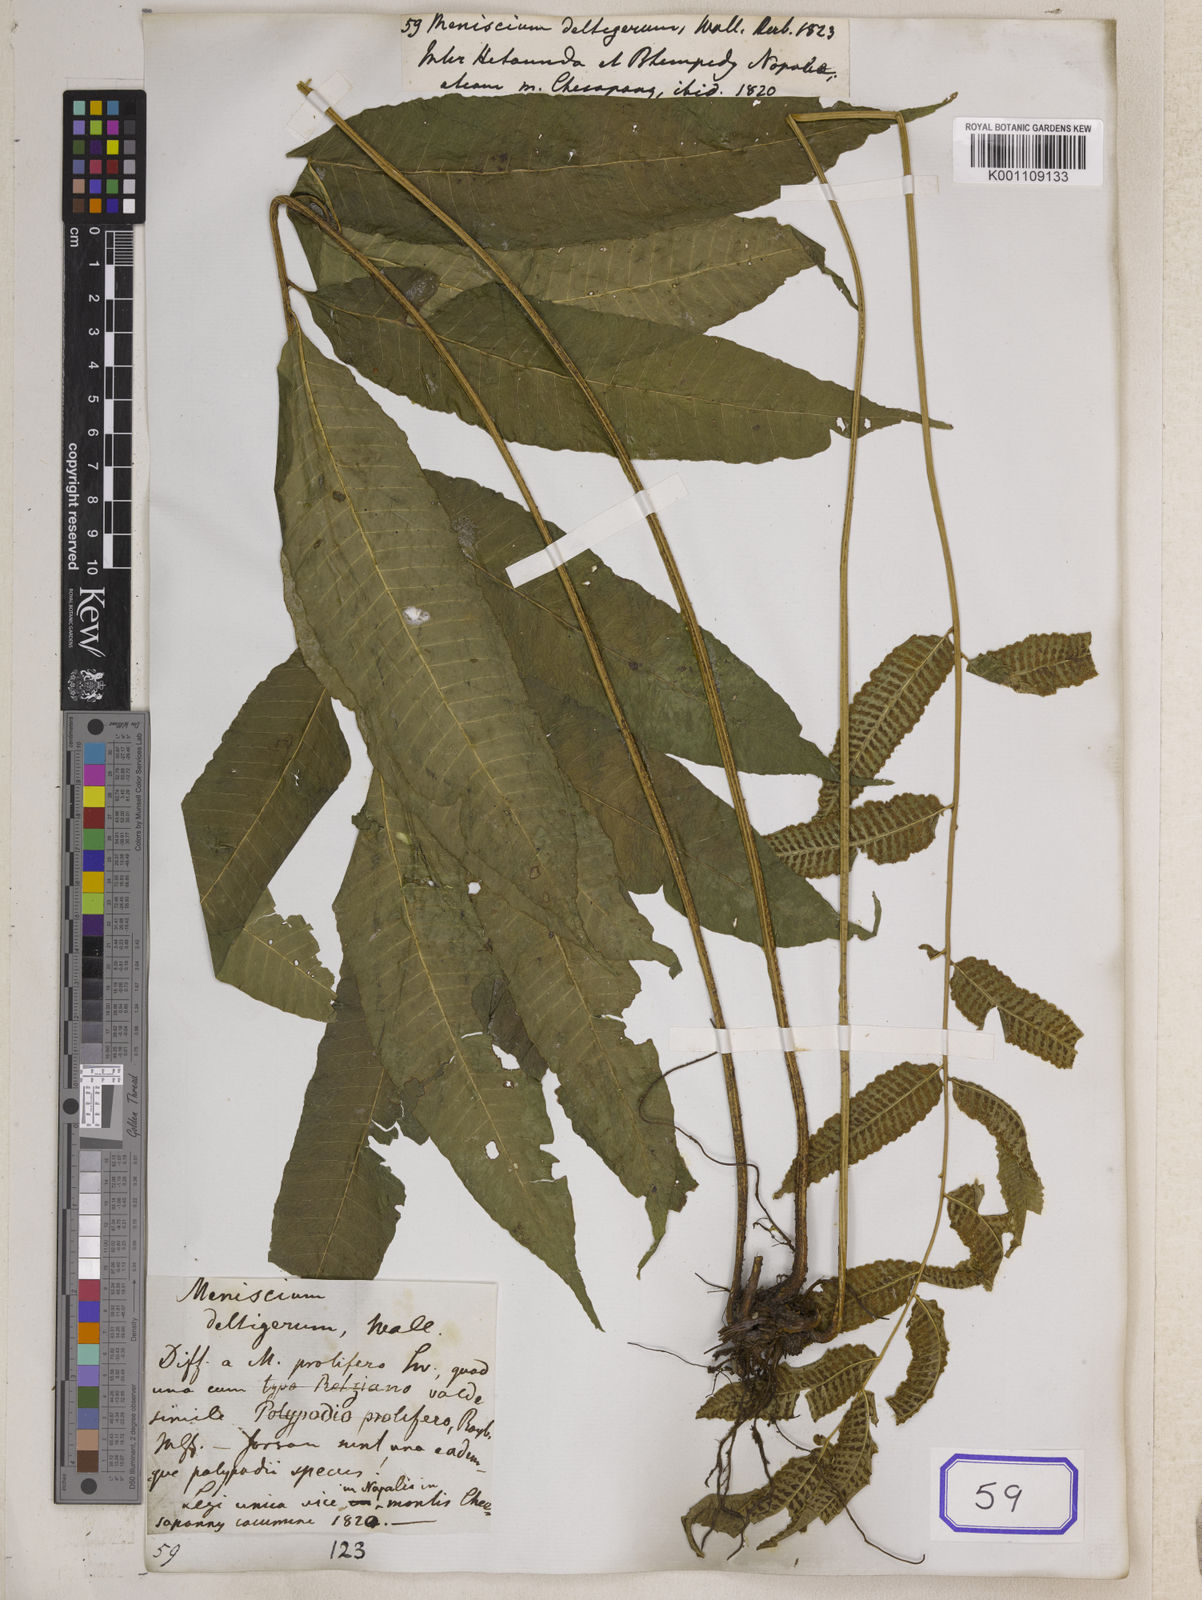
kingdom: Plantae
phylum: Tracheophyta
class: Polypodiopsida
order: Polypodiales
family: Dryopteridaceae
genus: Bolbitis
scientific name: Bolbitis deltigera
